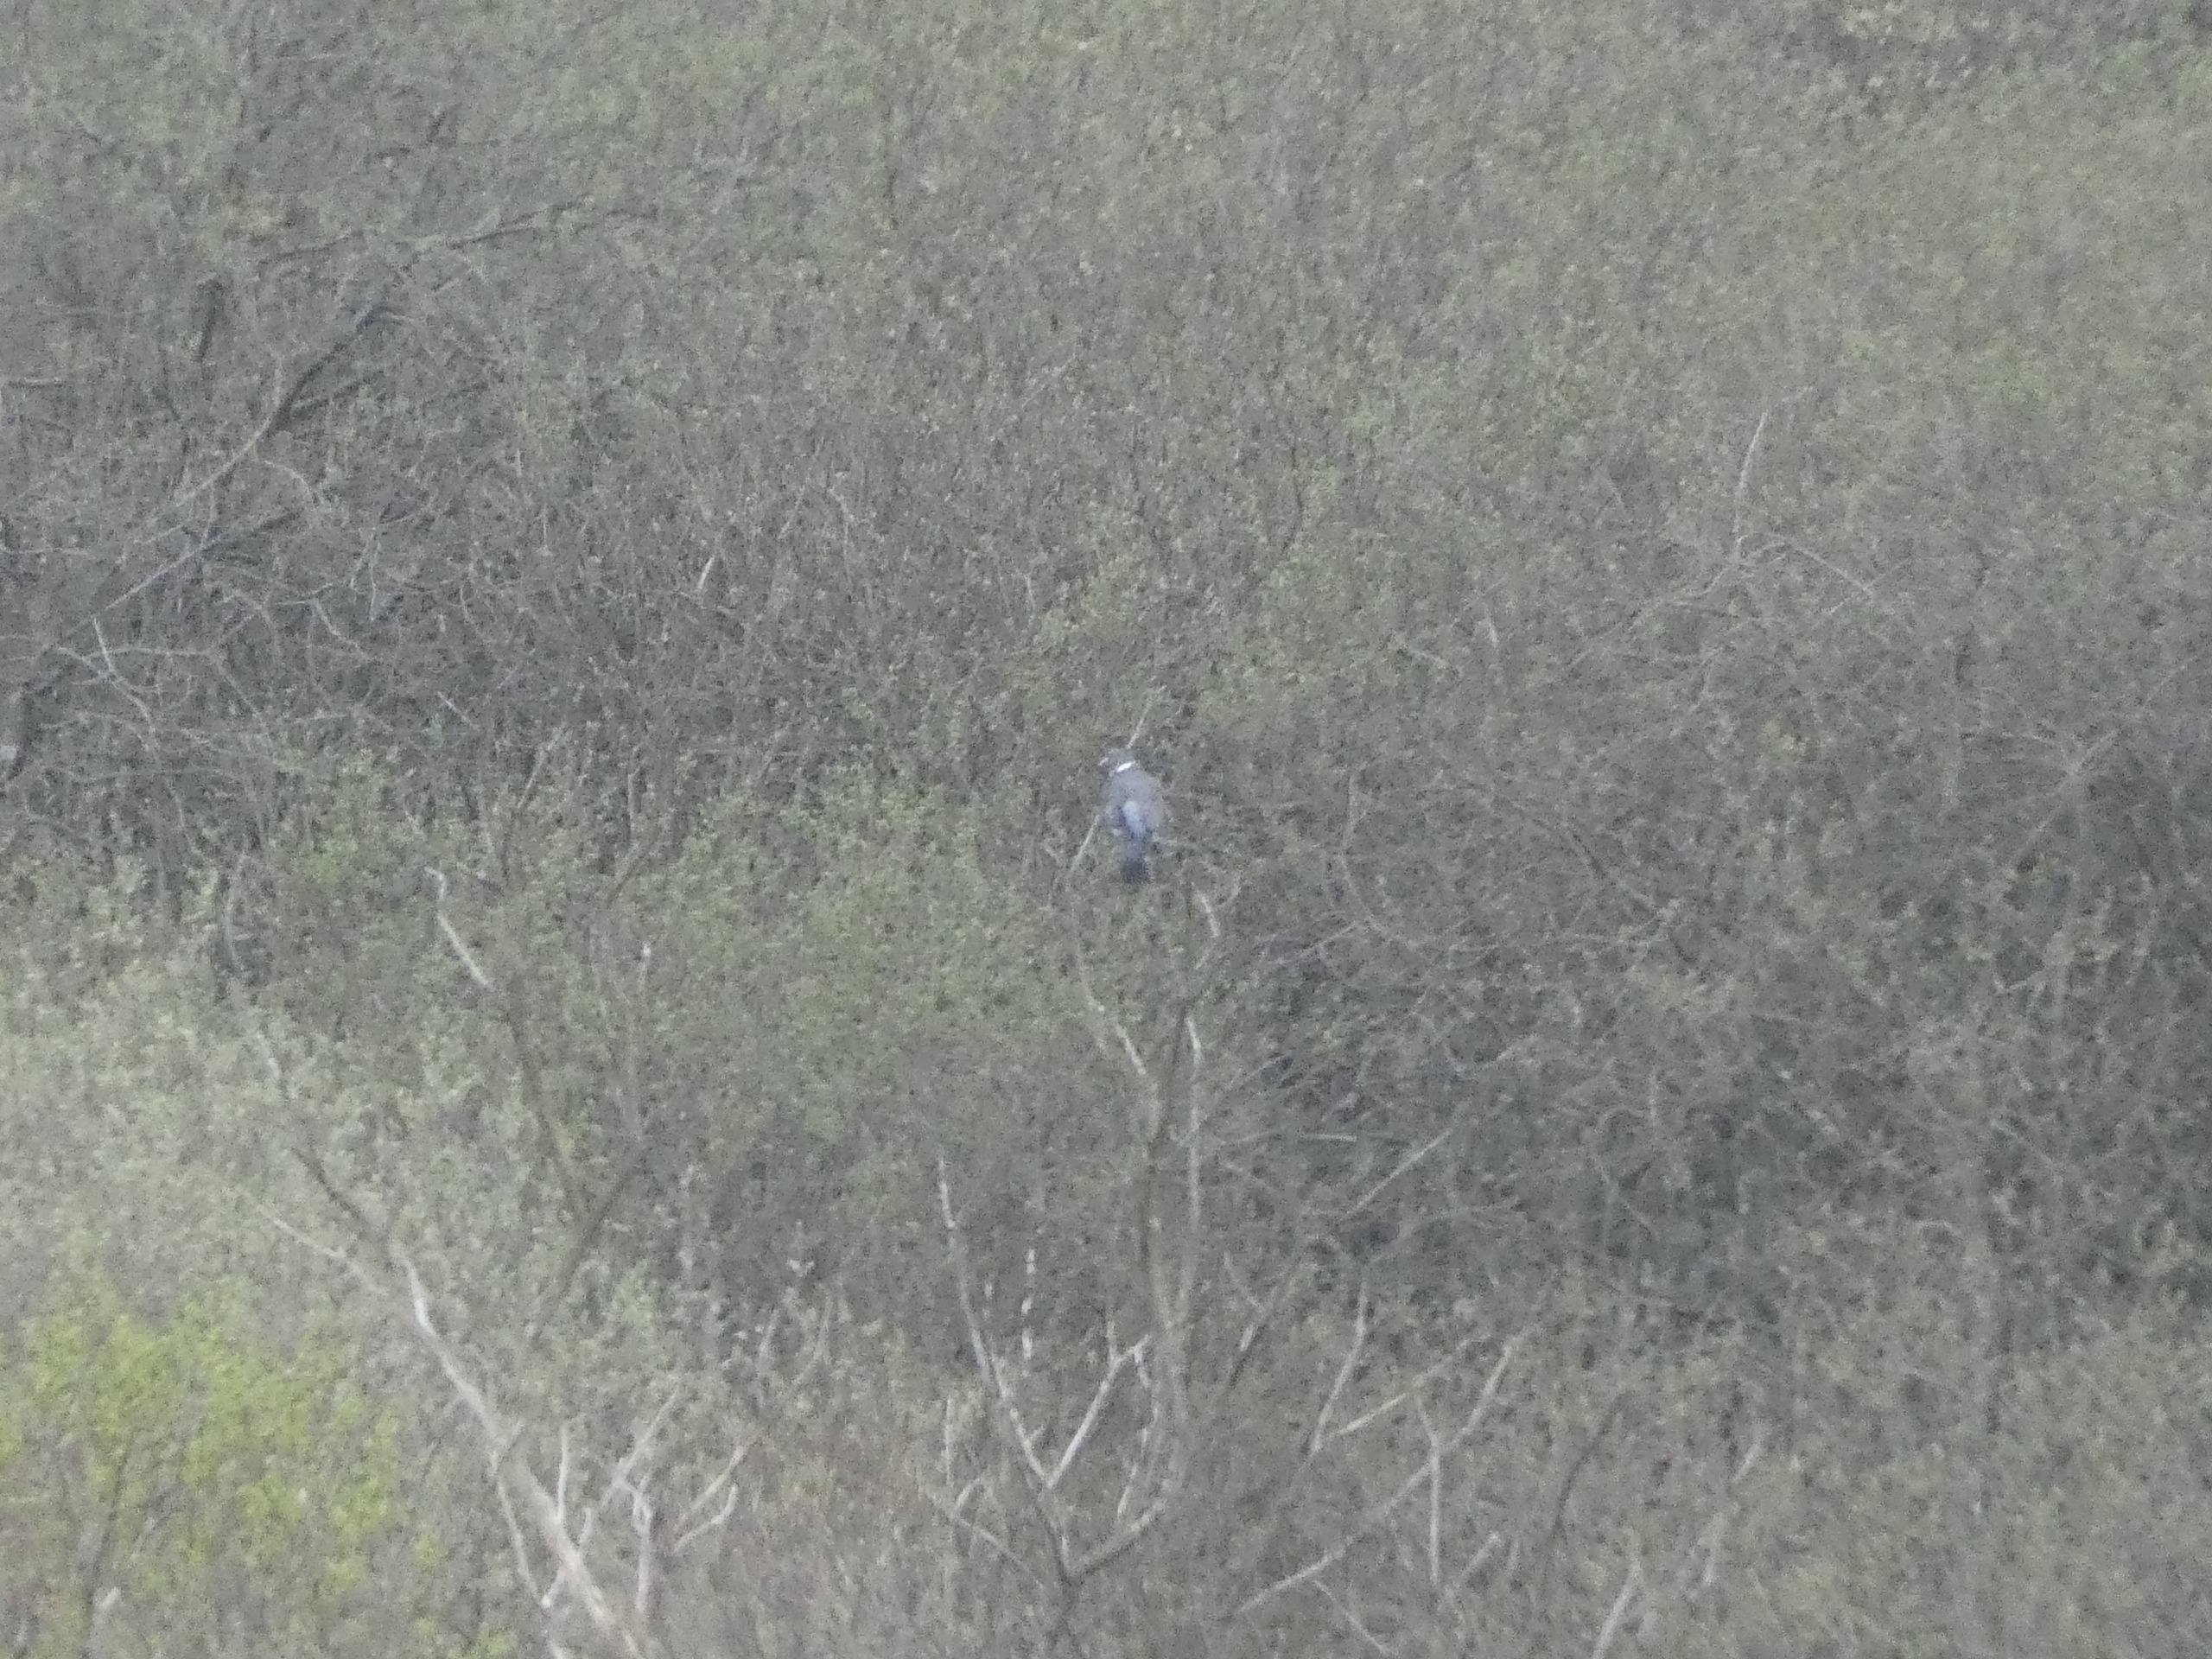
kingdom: Animalia
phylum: Chordata
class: Aves
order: Columbiformes
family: Columbidae
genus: Columba
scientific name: Columba palumbus
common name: Ringdue
